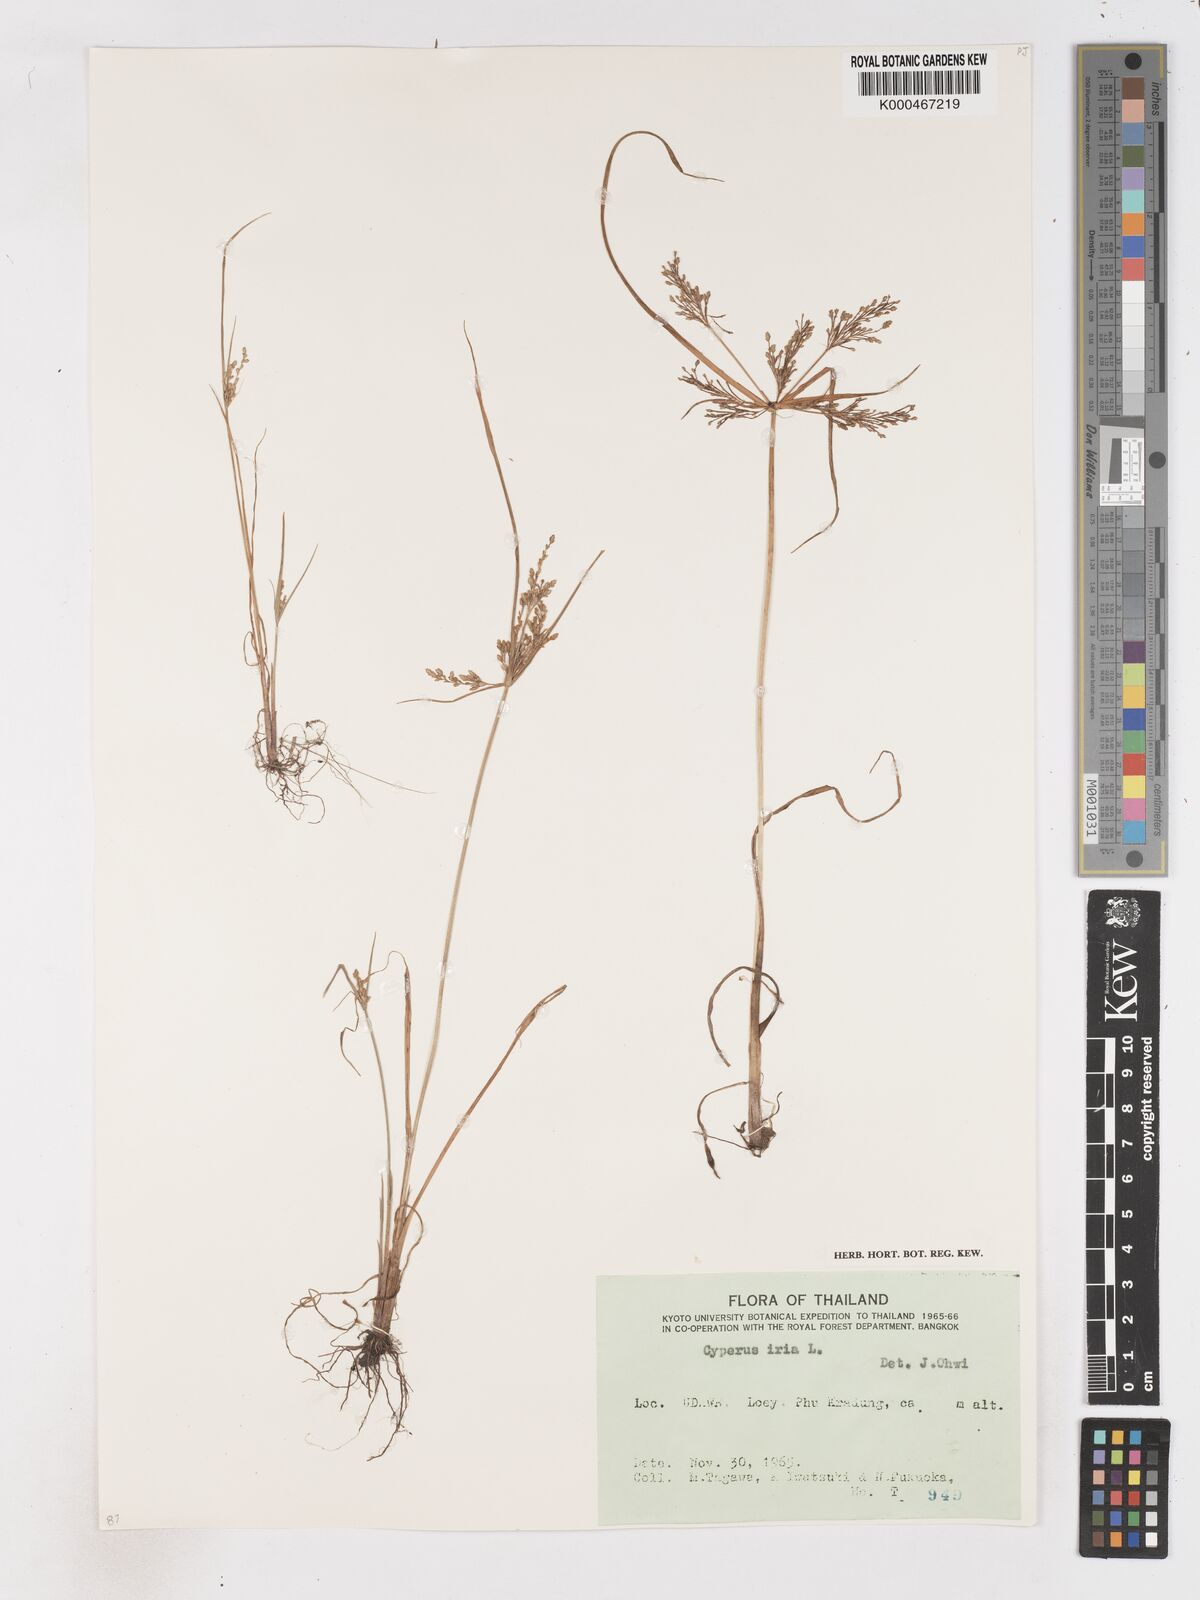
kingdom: Plantae
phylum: Tracheophyta
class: Liliopsida
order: Poales
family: Cyperaceae
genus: Cyperus
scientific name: Cyperus iria
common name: Ricefield flatsedge
